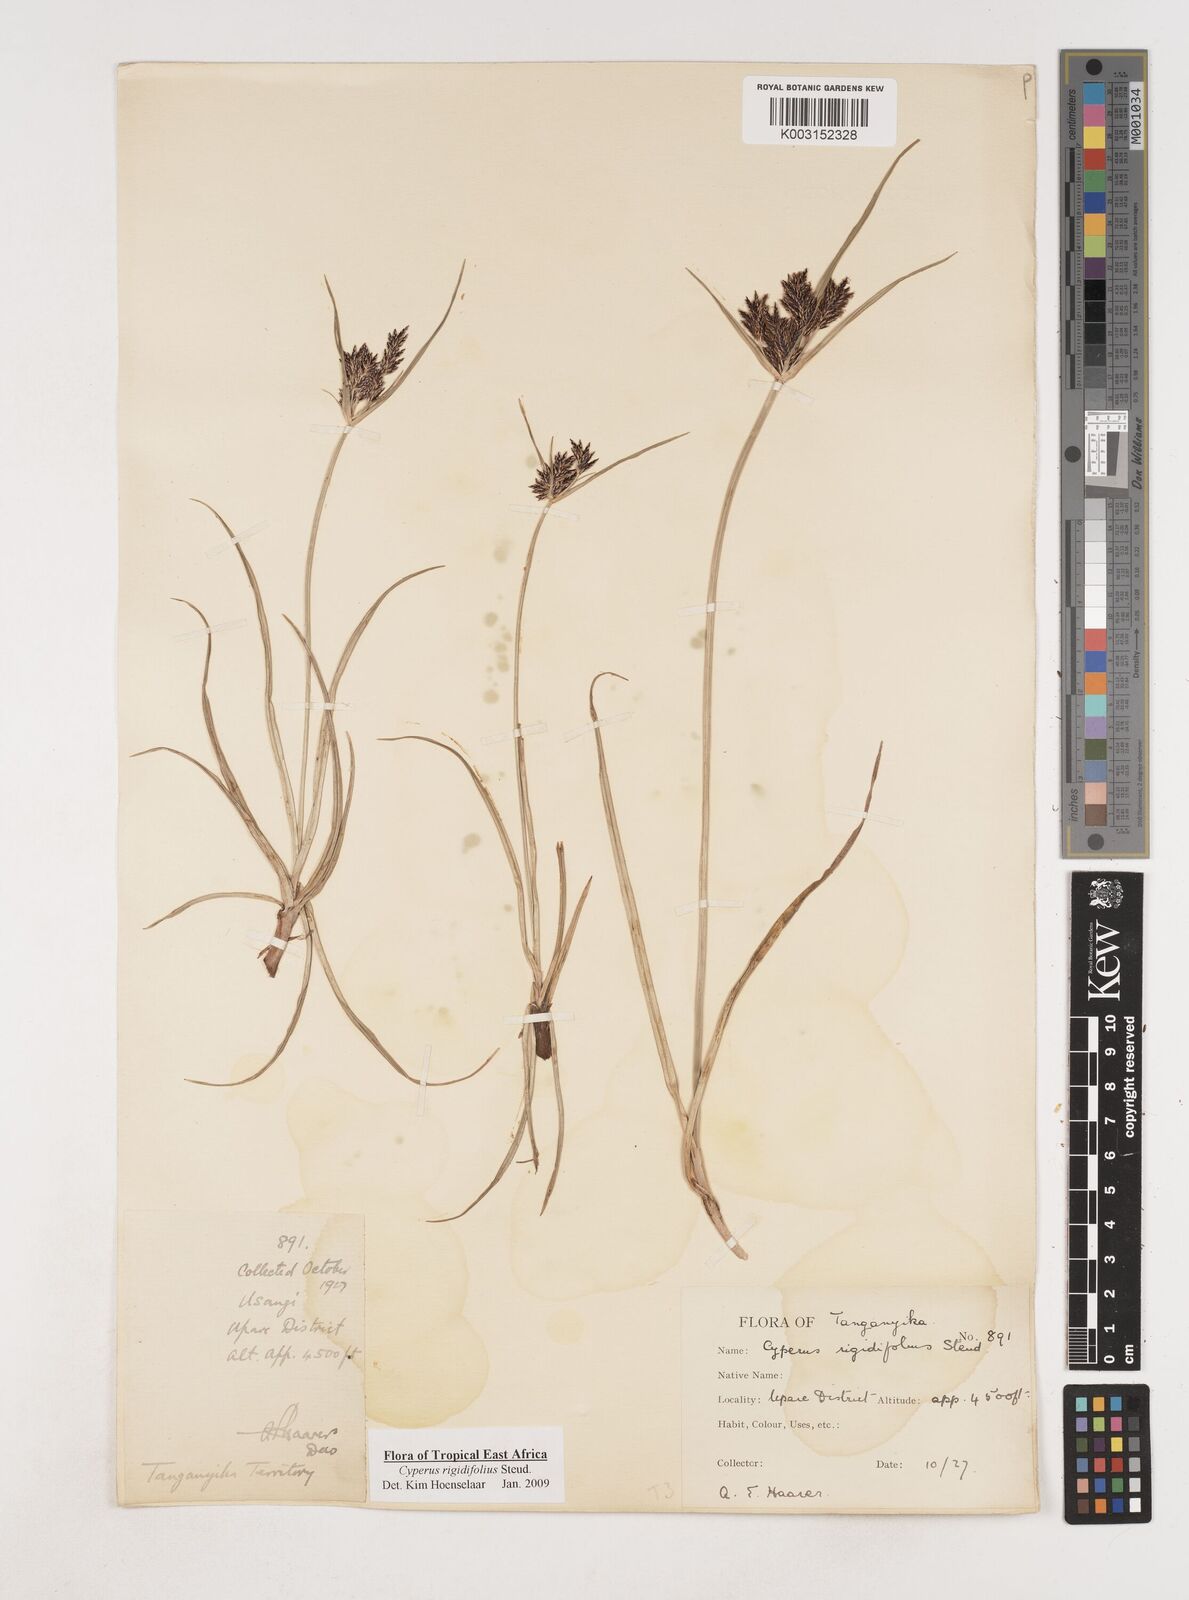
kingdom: Plantae
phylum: Tracheophyta
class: Liliopsida
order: Poales
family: Cyperaceae
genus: Cyperus
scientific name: Cyperus rigidifolius
